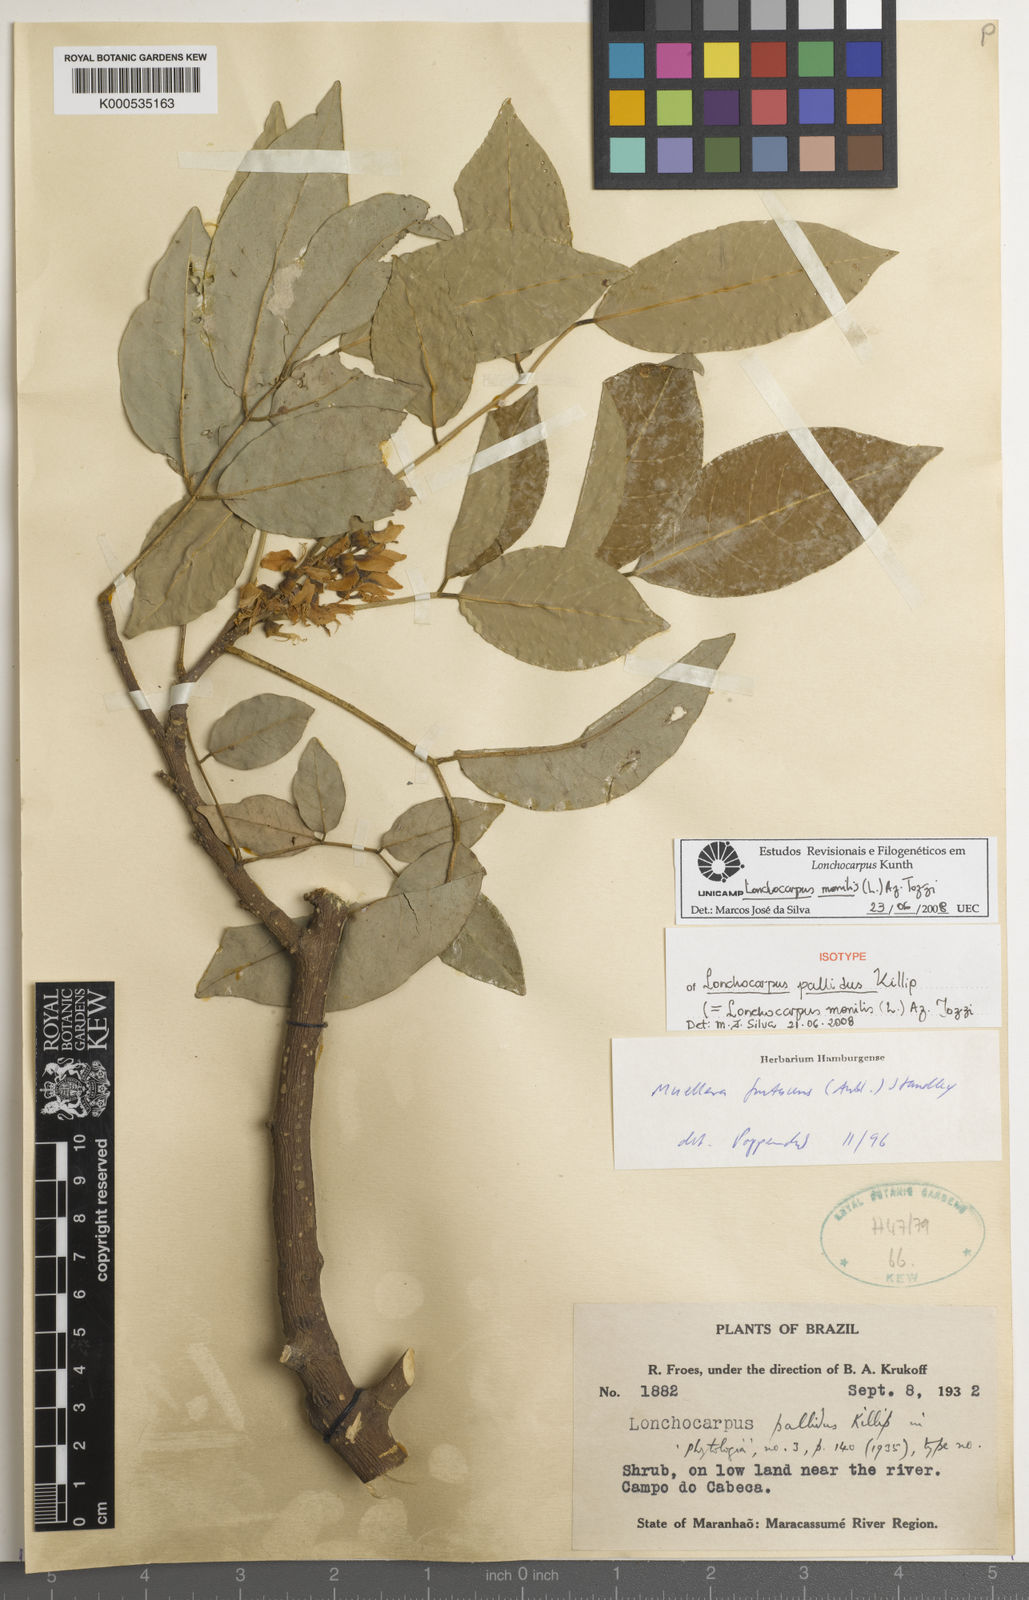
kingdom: Plantae
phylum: Tracheophyta
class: Magnoliopsida
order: Fabales
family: Fabaceae
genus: Muellera
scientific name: Muellera monilis
